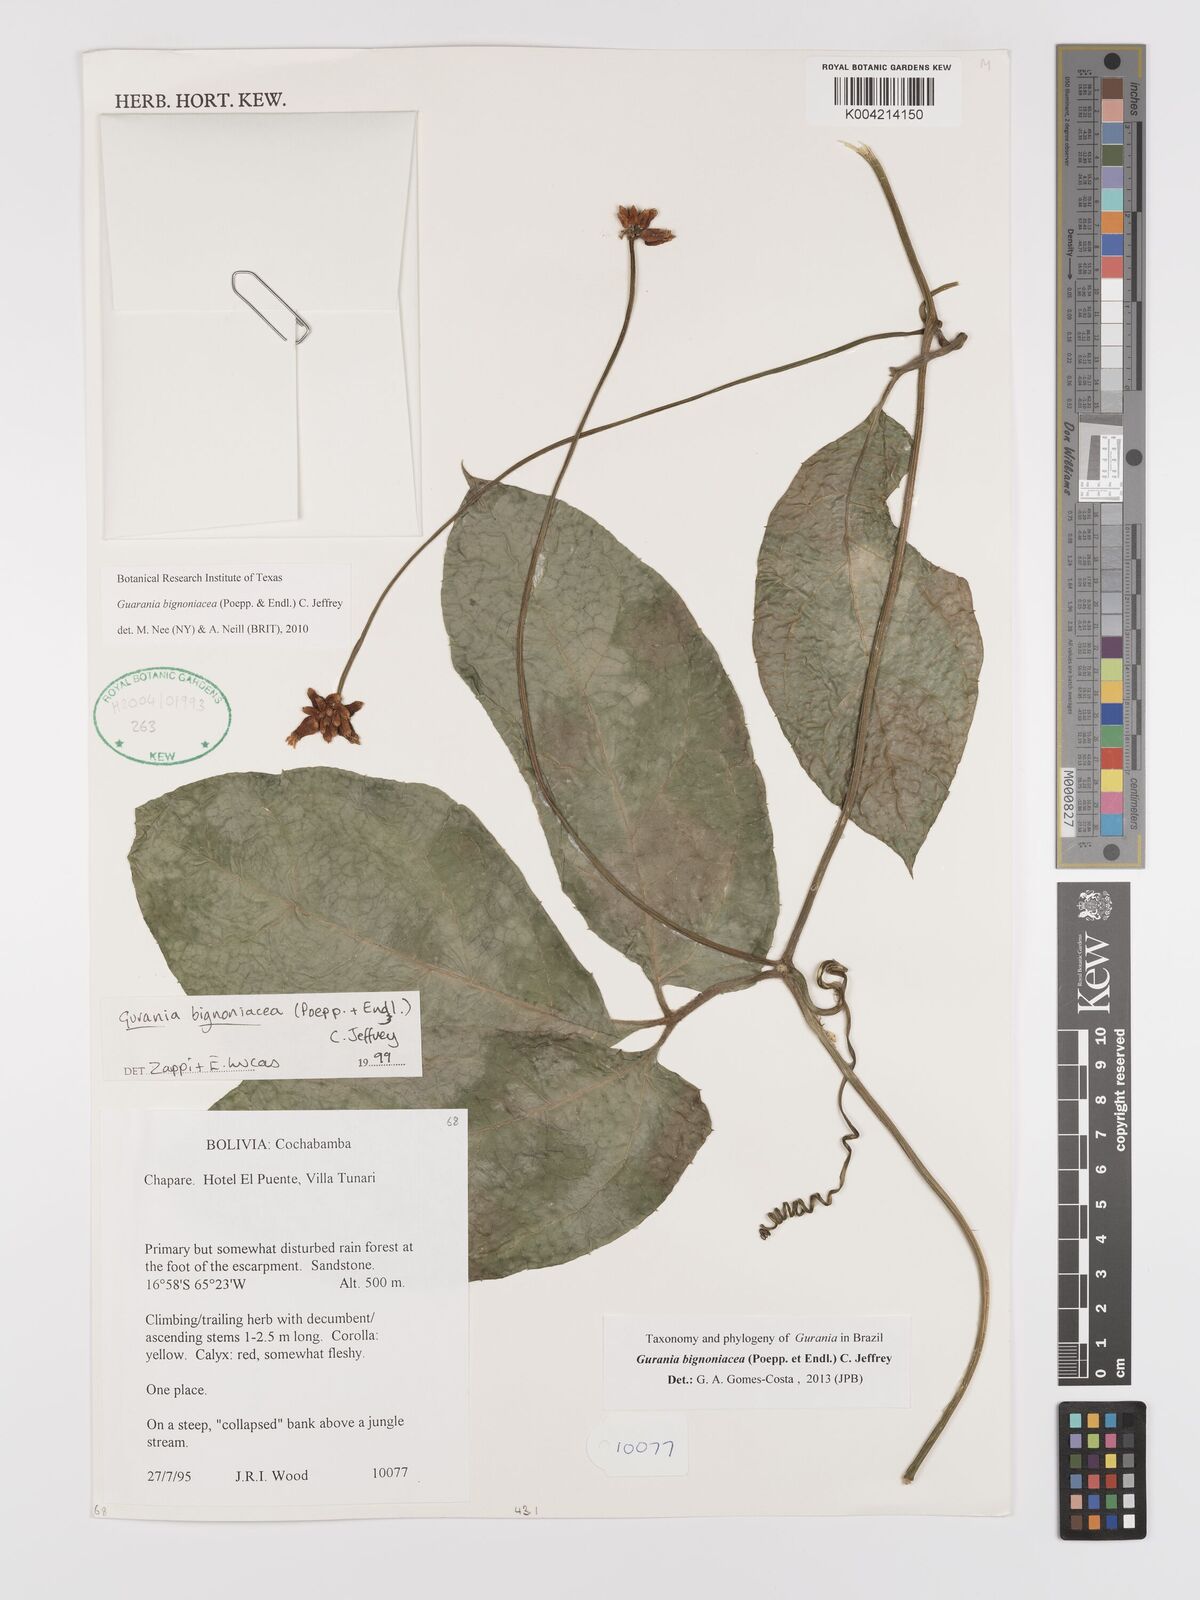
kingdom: Plantae
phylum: Tracheophyta
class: Magnoliopsida
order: Cucurbitales
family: Cucurbitaceae
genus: Gurania
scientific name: Gurania bignoniacea
